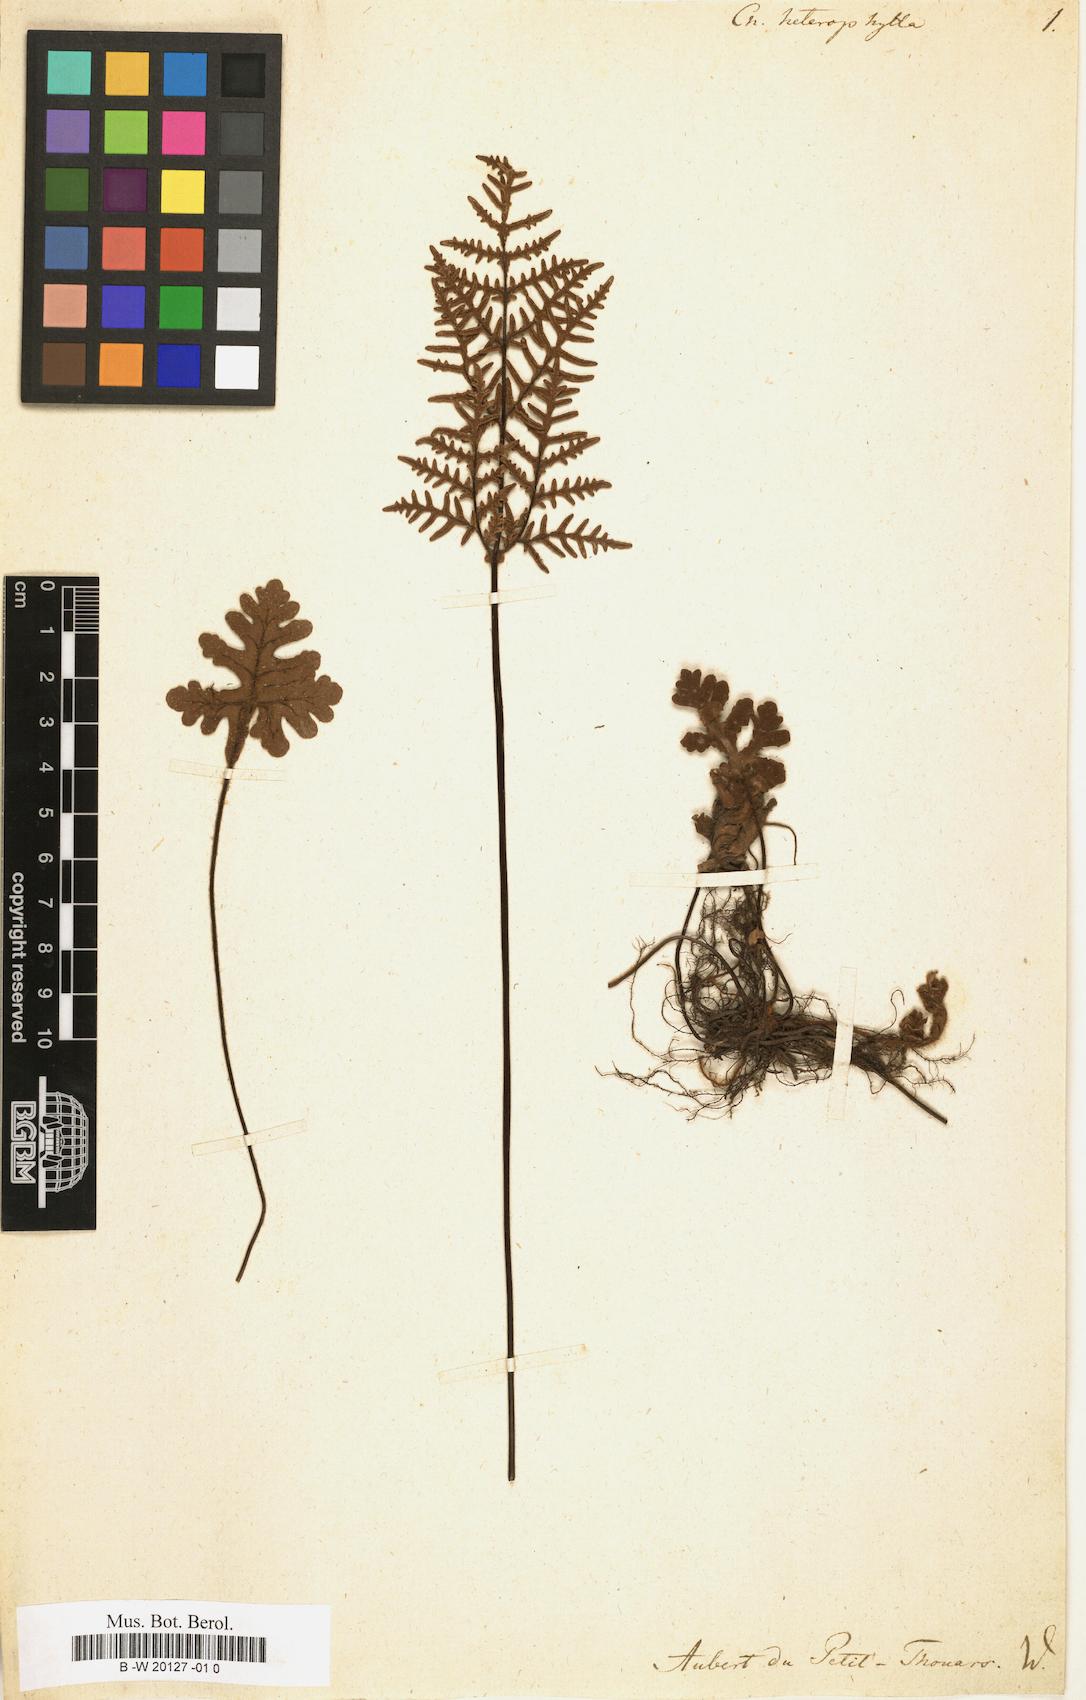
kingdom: Plantae
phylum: Tracheophyta
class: Polypodiopsida
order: Polypodiales
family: Pteridaceae
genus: Doryopteris
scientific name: Doryopteris pilosa
